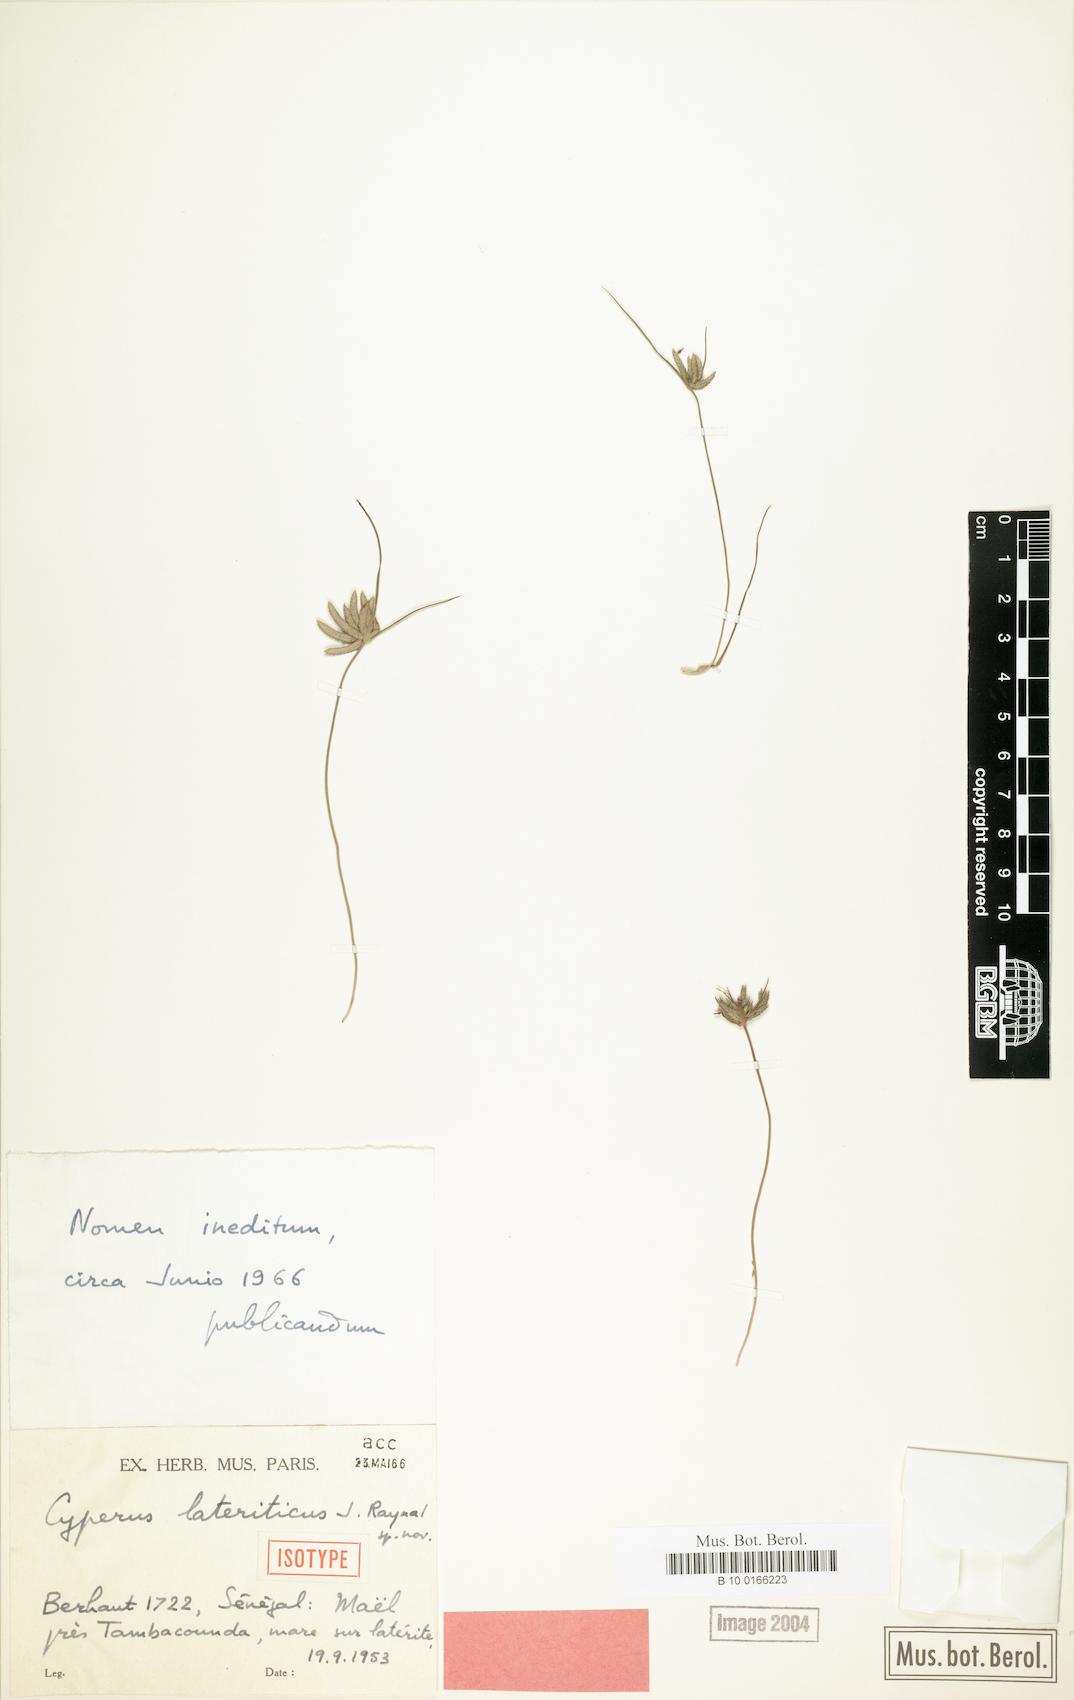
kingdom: Plantae
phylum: Tracheophyta
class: Liliopsida
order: Poales
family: Cyperaceae
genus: Cyperus
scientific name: Cyperus lateriticus
